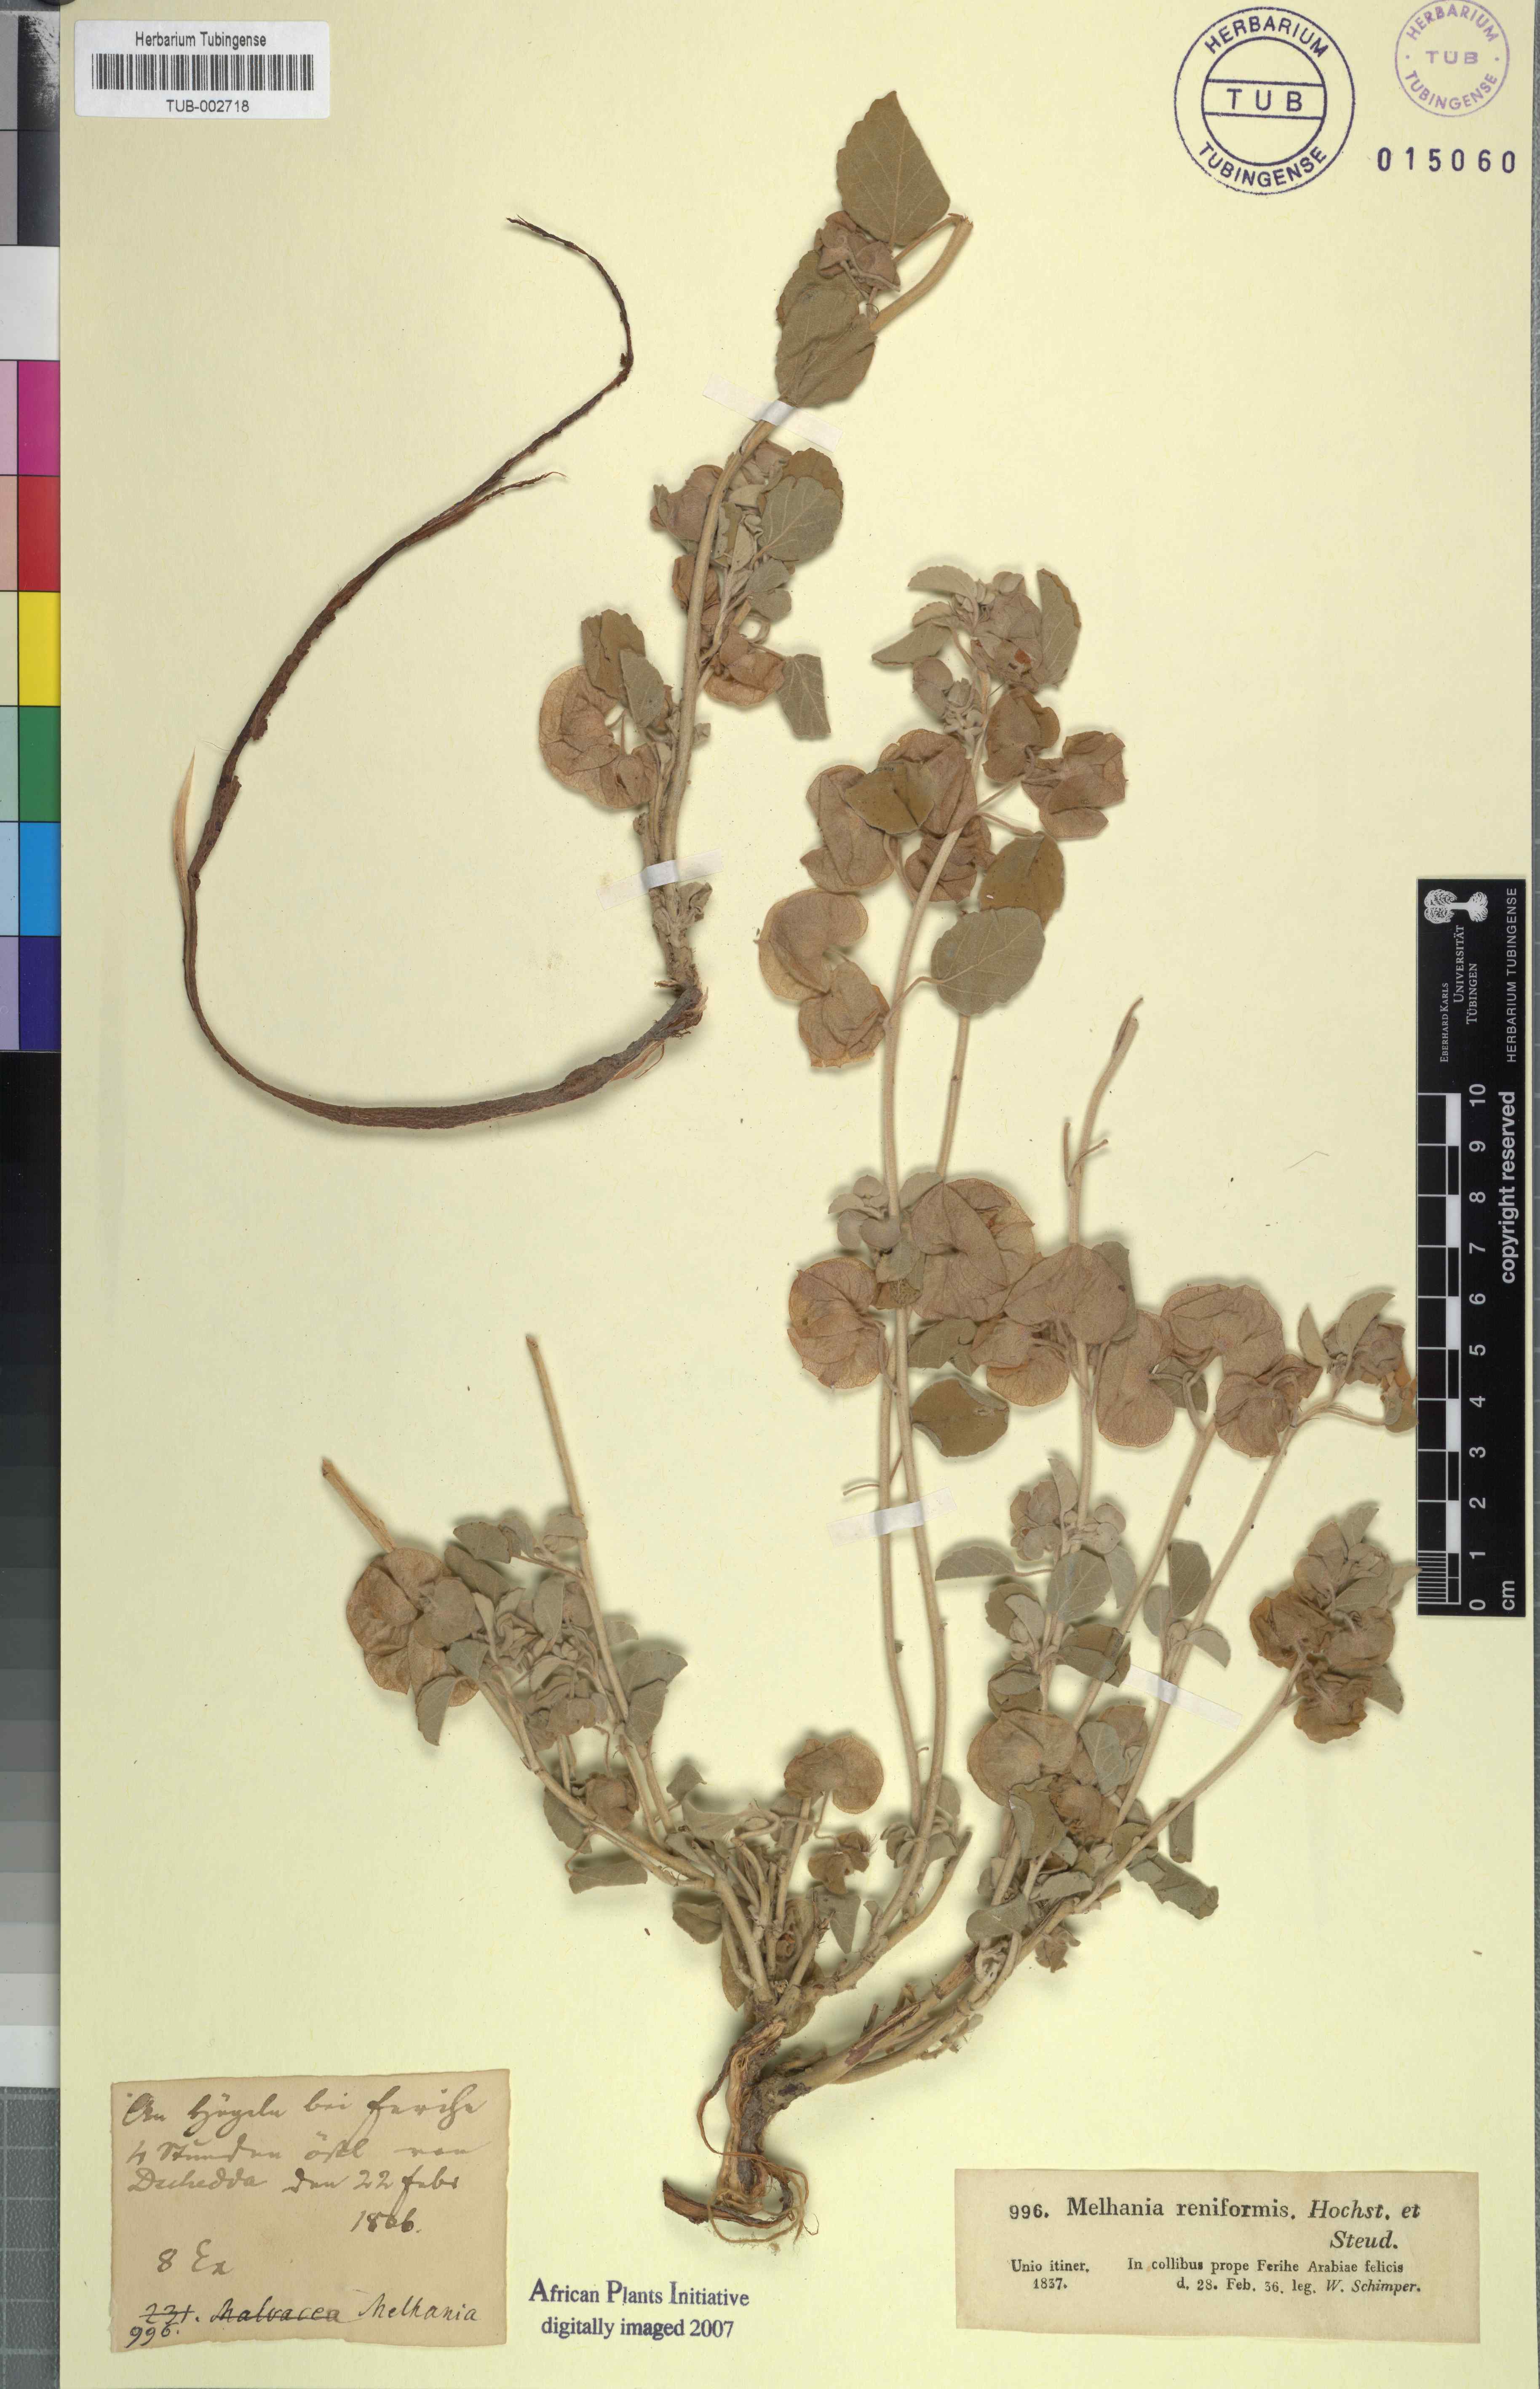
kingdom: Plantae
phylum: Tracheophyta
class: Magnoliopsida
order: Malvales
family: Malvaceae
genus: Melhania
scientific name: Melhania denhamii
